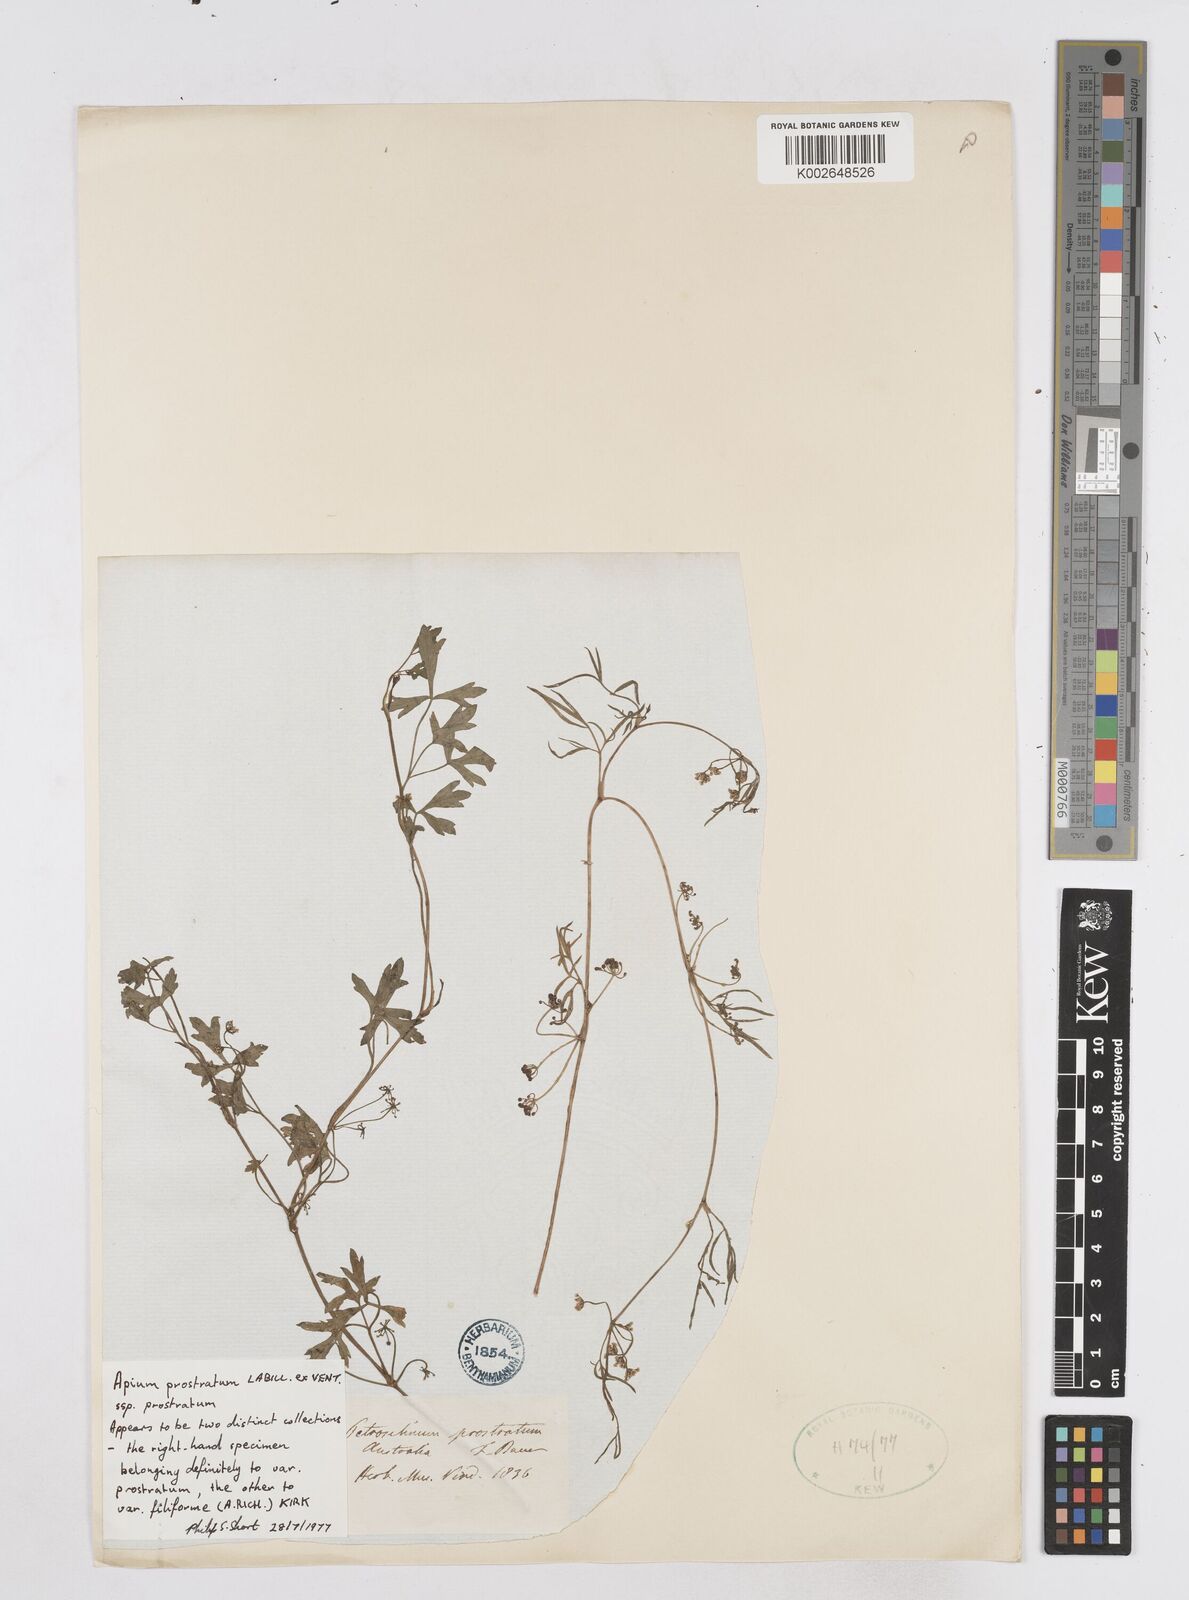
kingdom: Plantae
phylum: Tracheophyta
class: Magnoliopsida
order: Apiales
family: Apiaceae
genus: Apium
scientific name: Apium prostratum
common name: Prostrate marshwort
